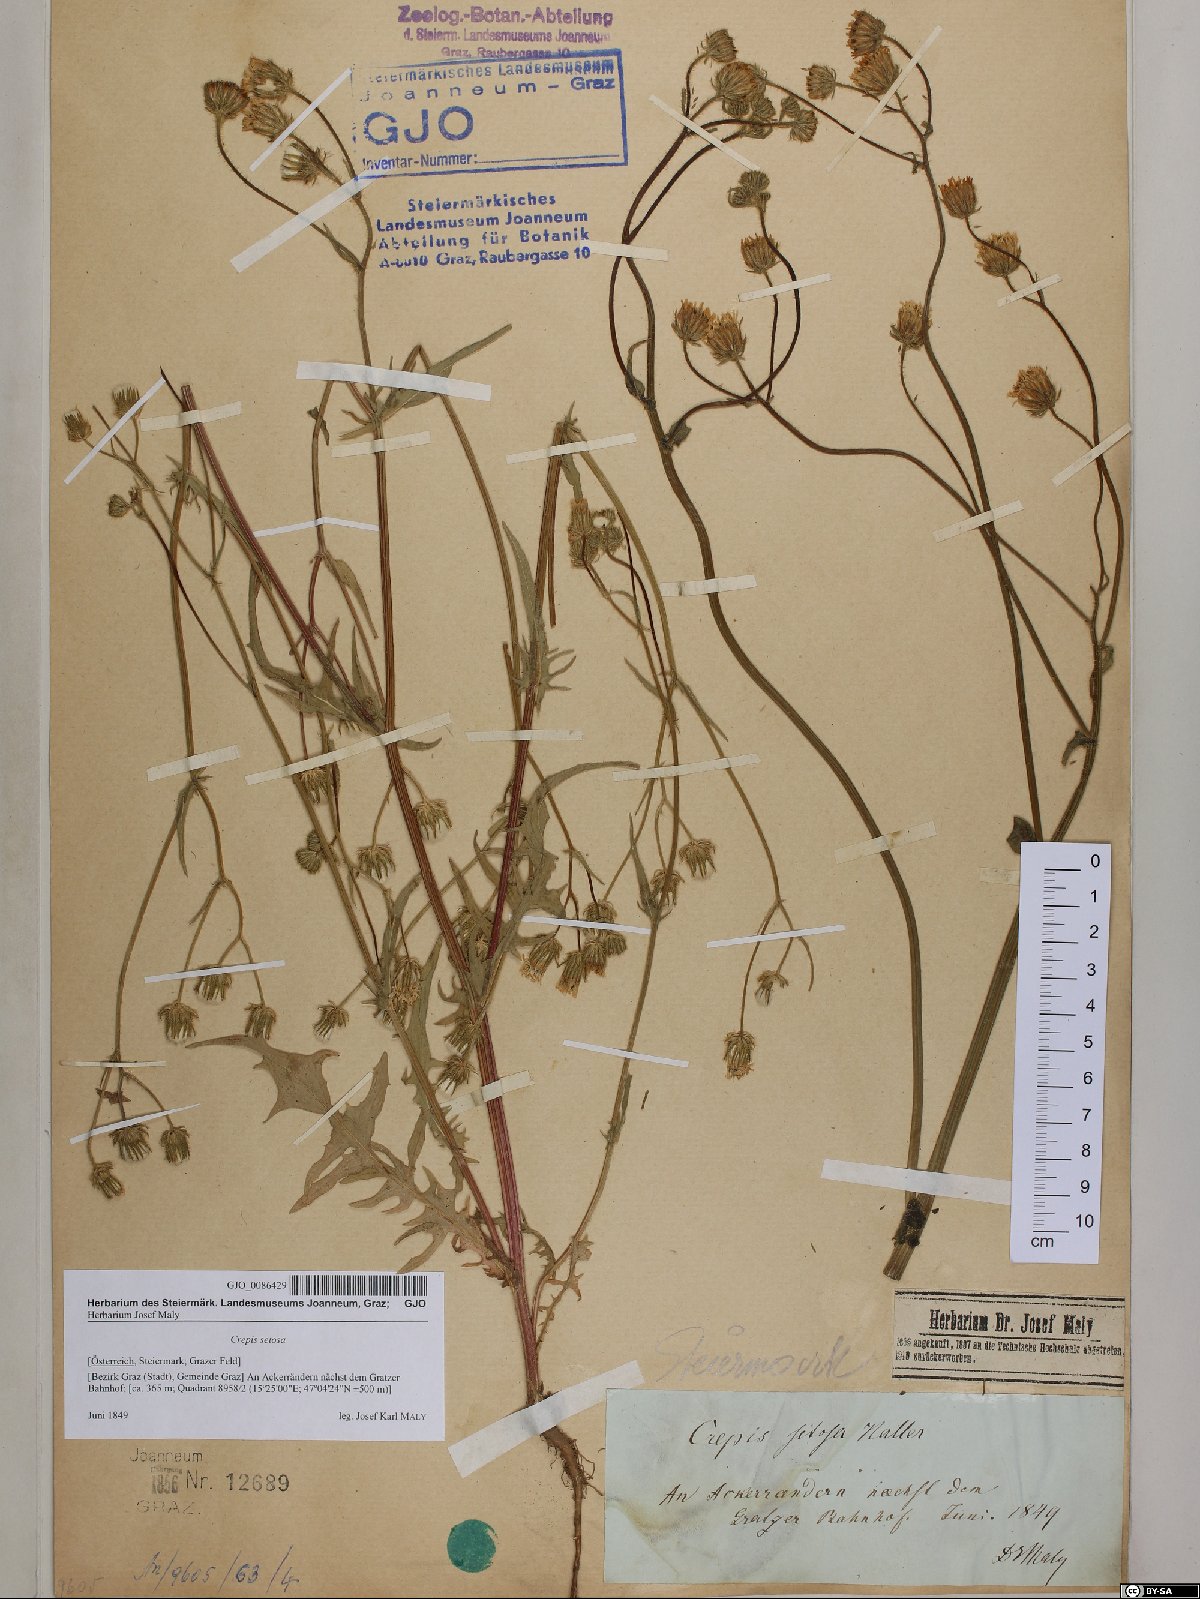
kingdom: Plantae
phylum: Tracheophyta
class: Magnoliopsida
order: Asterales
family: Asteraceae
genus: Crepis
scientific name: Crepis setosa
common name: Bristly hawk's-beard
